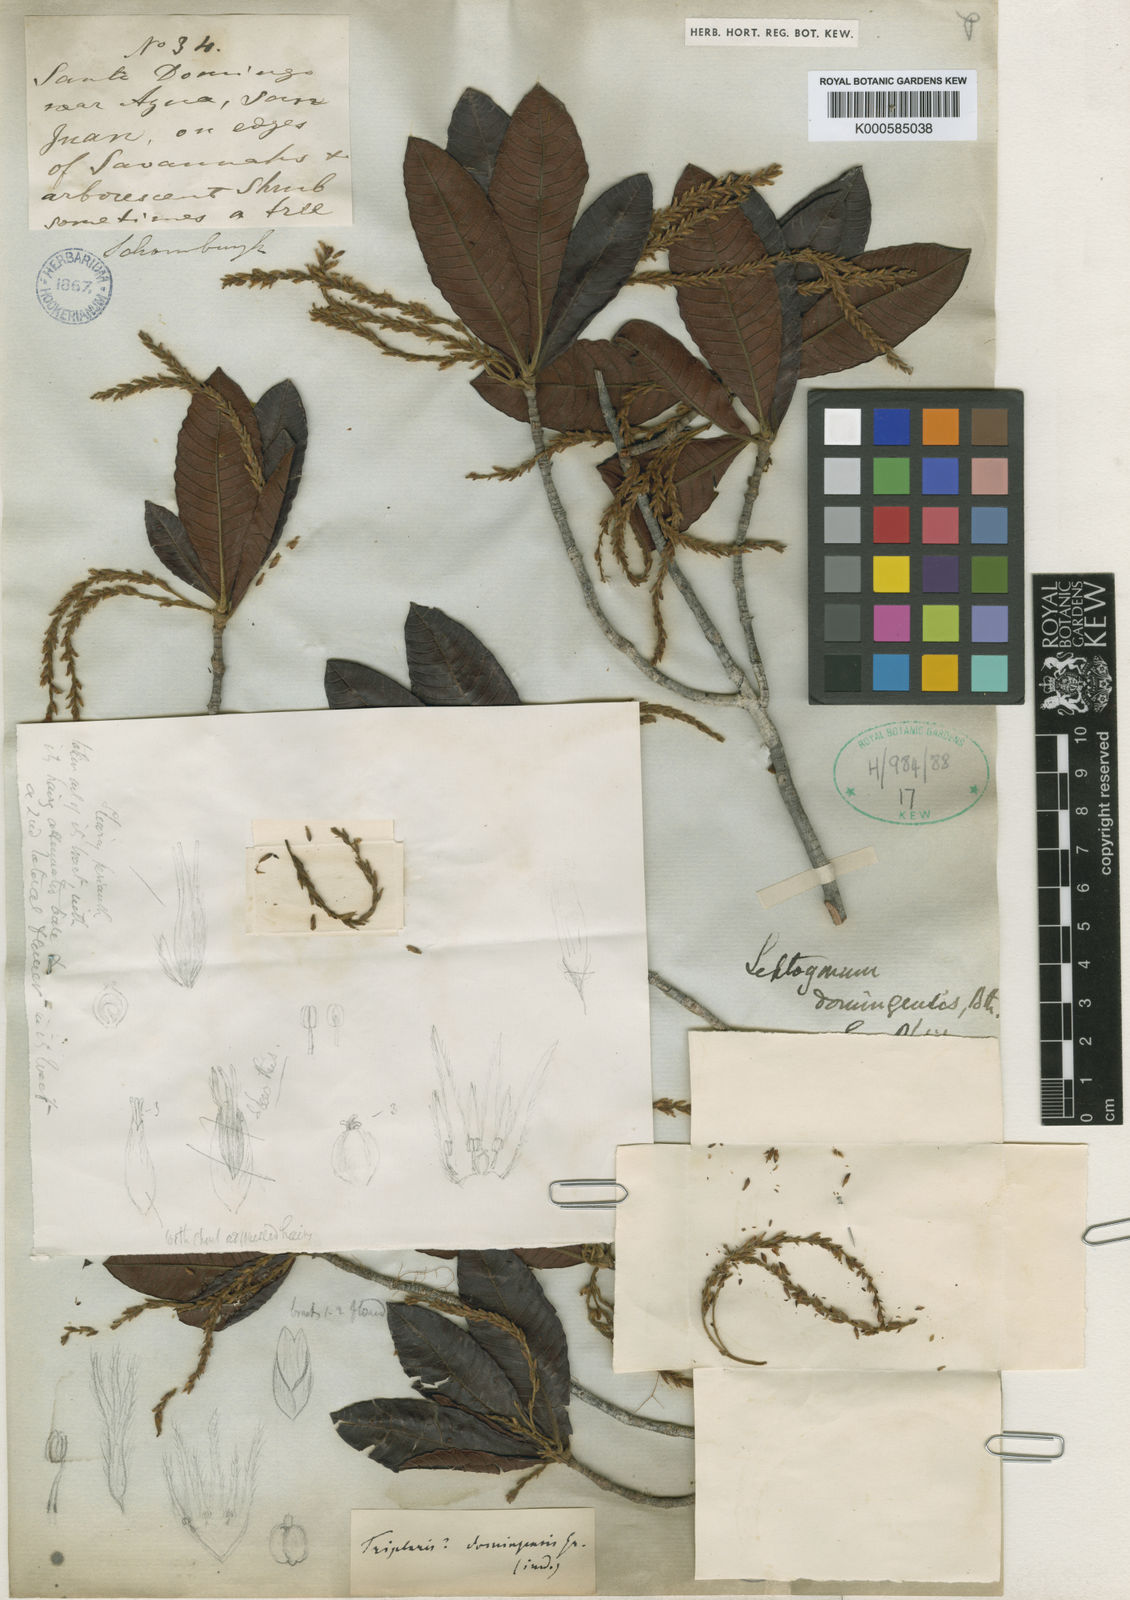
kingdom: Plantae
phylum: Tracheophyta
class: Magnoliopsida
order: Caryophyllales
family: Polygonaceae
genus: Leptogonum
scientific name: Leptogonum domingense
